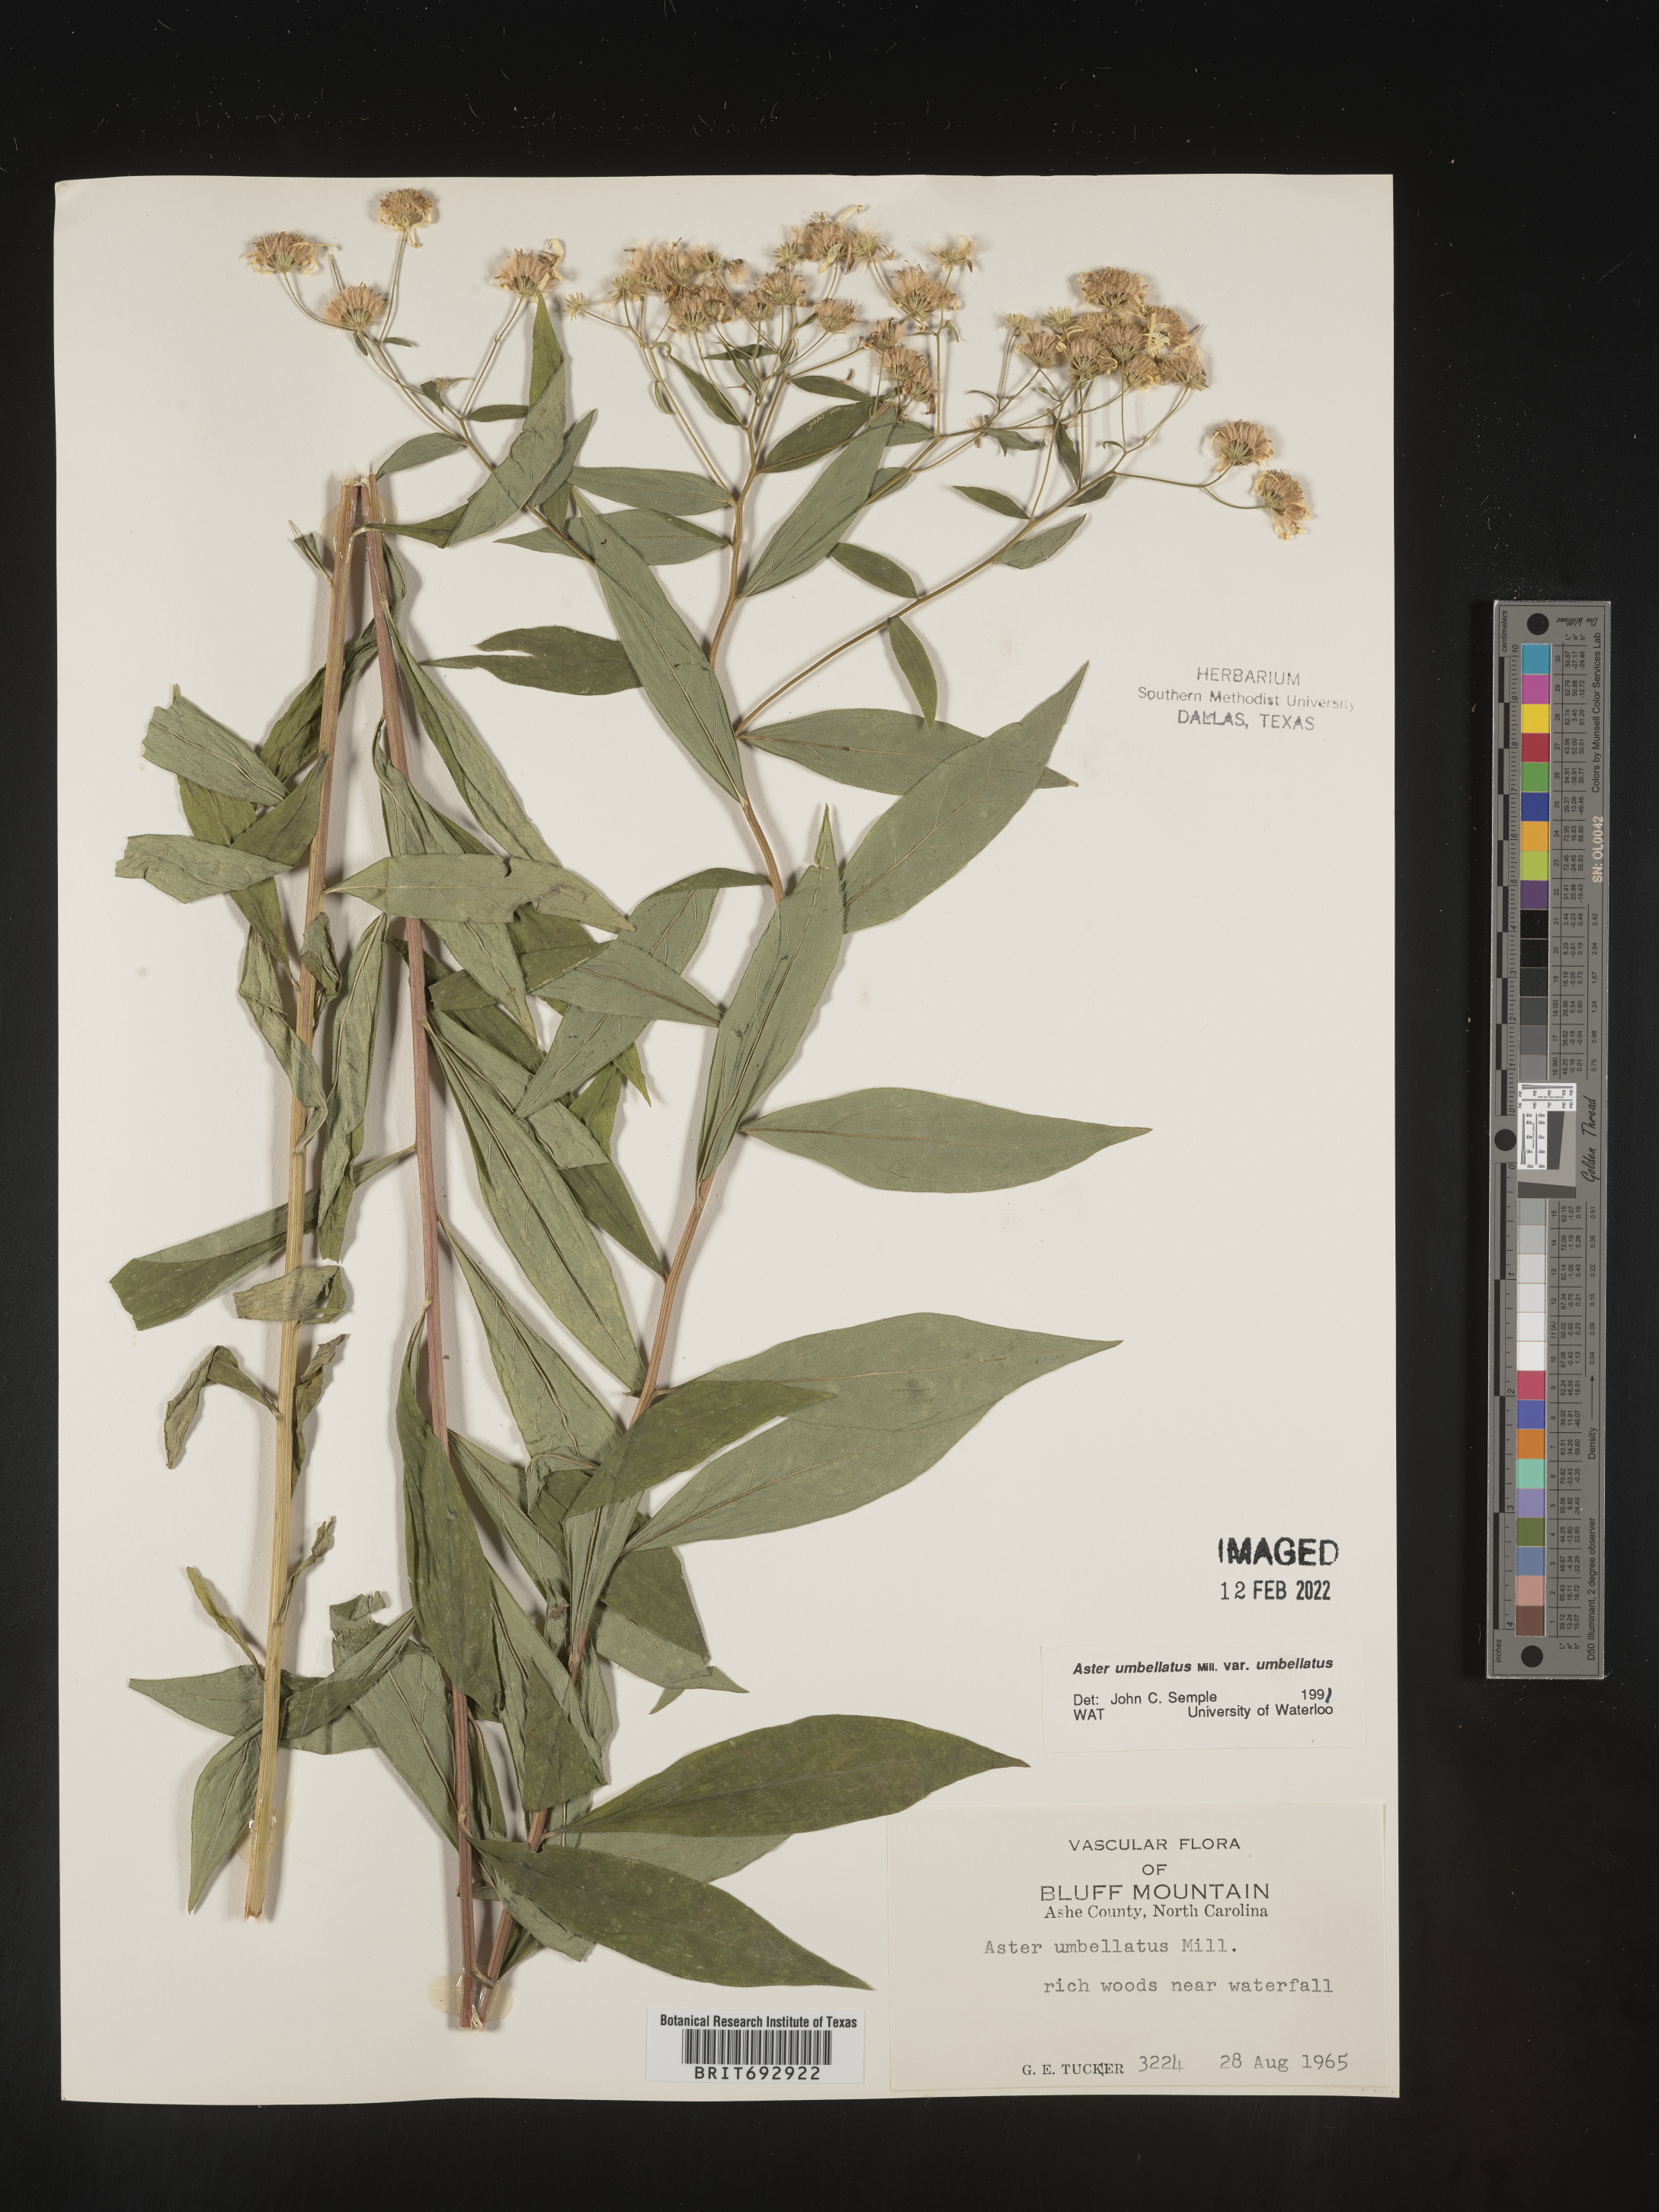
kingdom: Plantae
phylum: Tracheophyta
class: Magnoliopsida
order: Asterales
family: Asteraceae
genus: Doellingeria
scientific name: Doellingeria umbellata
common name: Flat-top white aster
